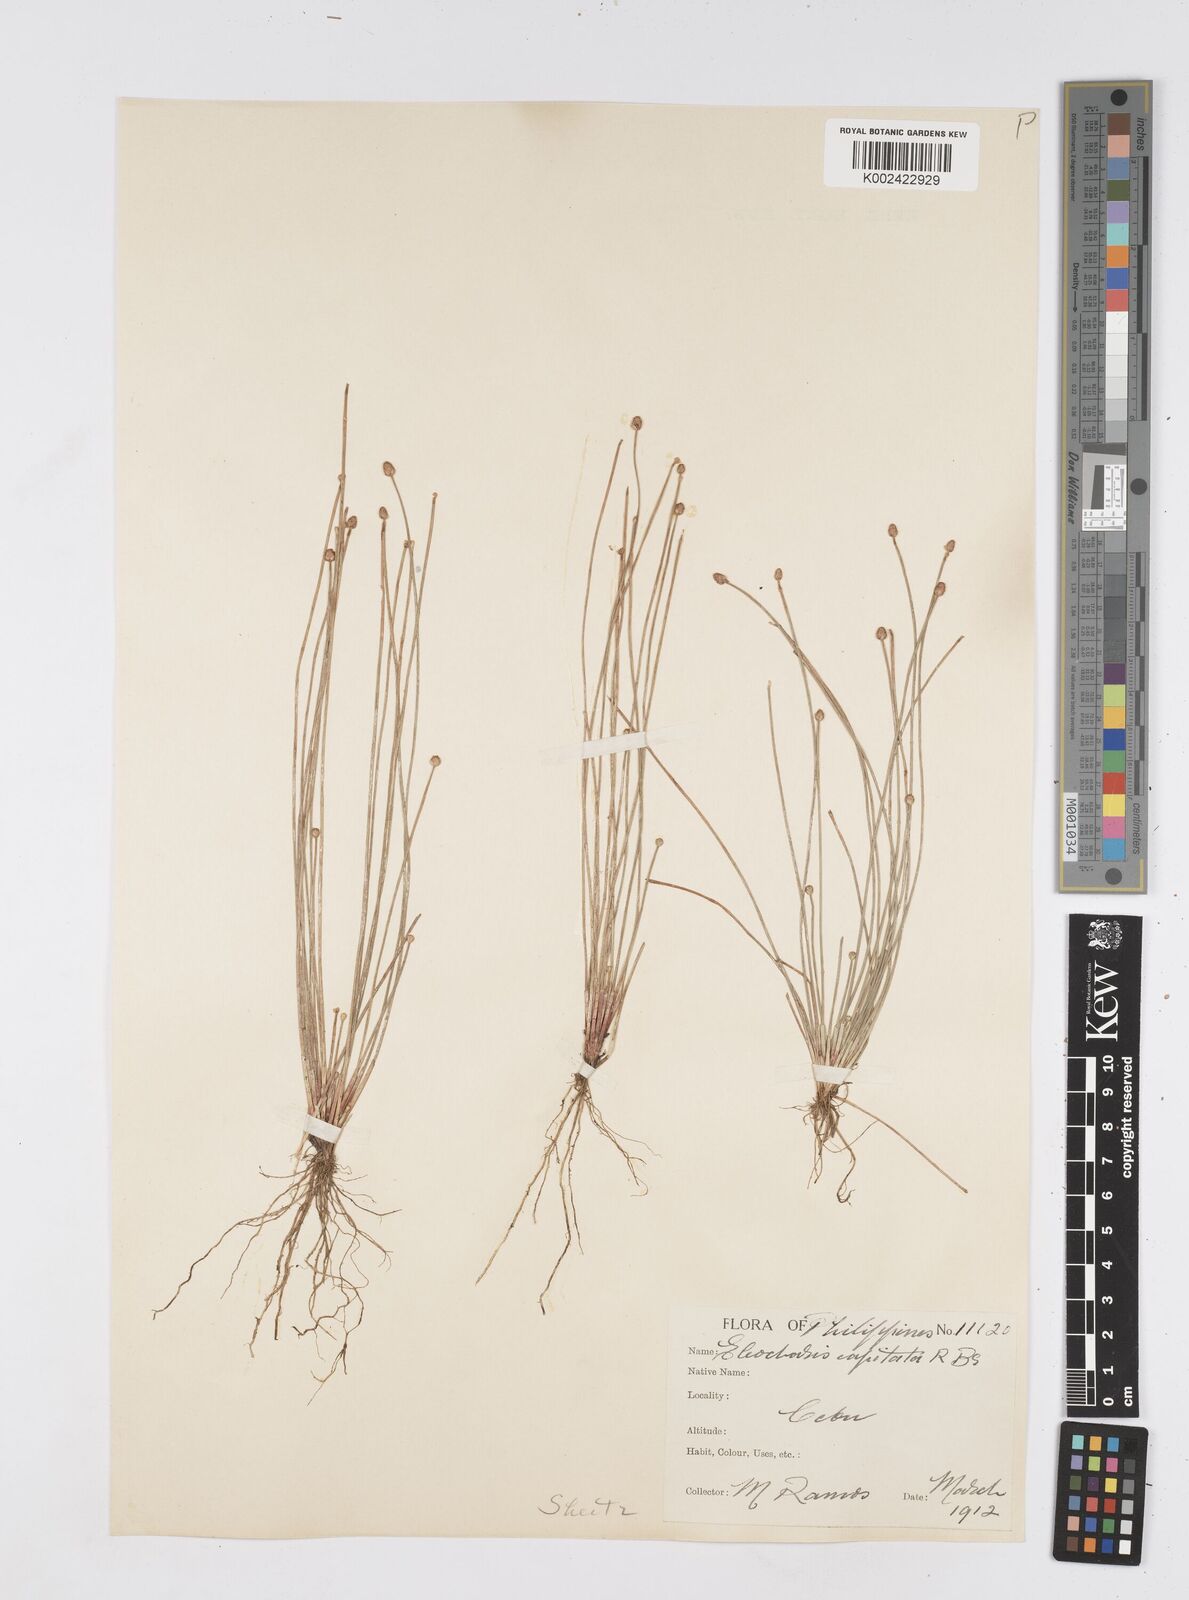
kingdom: Plantae
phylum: Tracheophyta
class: Liliopsida
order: Poales
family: Cyperaceae
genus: Eleocharis
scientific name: Eleocharis geniculata
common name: Canada spikesedge
